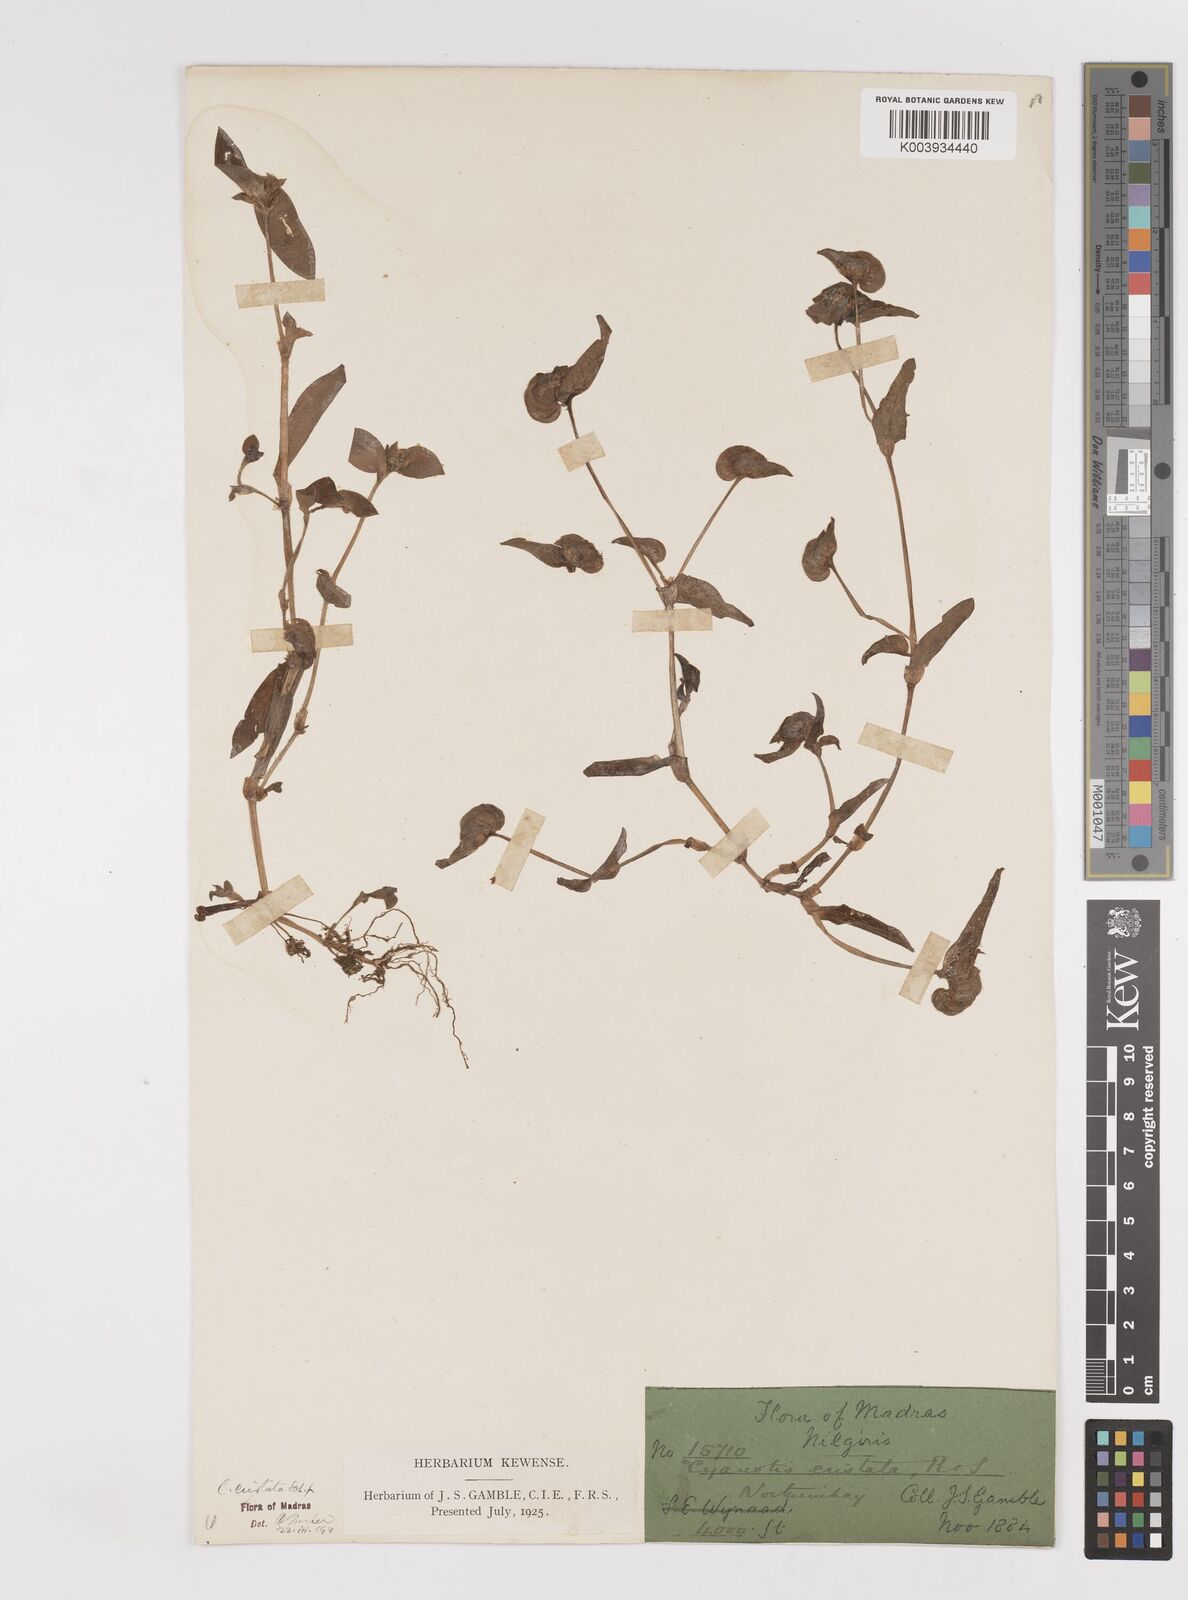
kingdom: Plantae
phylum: Tracheophyta
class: Liliopsida
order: Commelinales
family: Commelinaceae
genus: Cyanotis
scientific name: Cyanotis cristata
